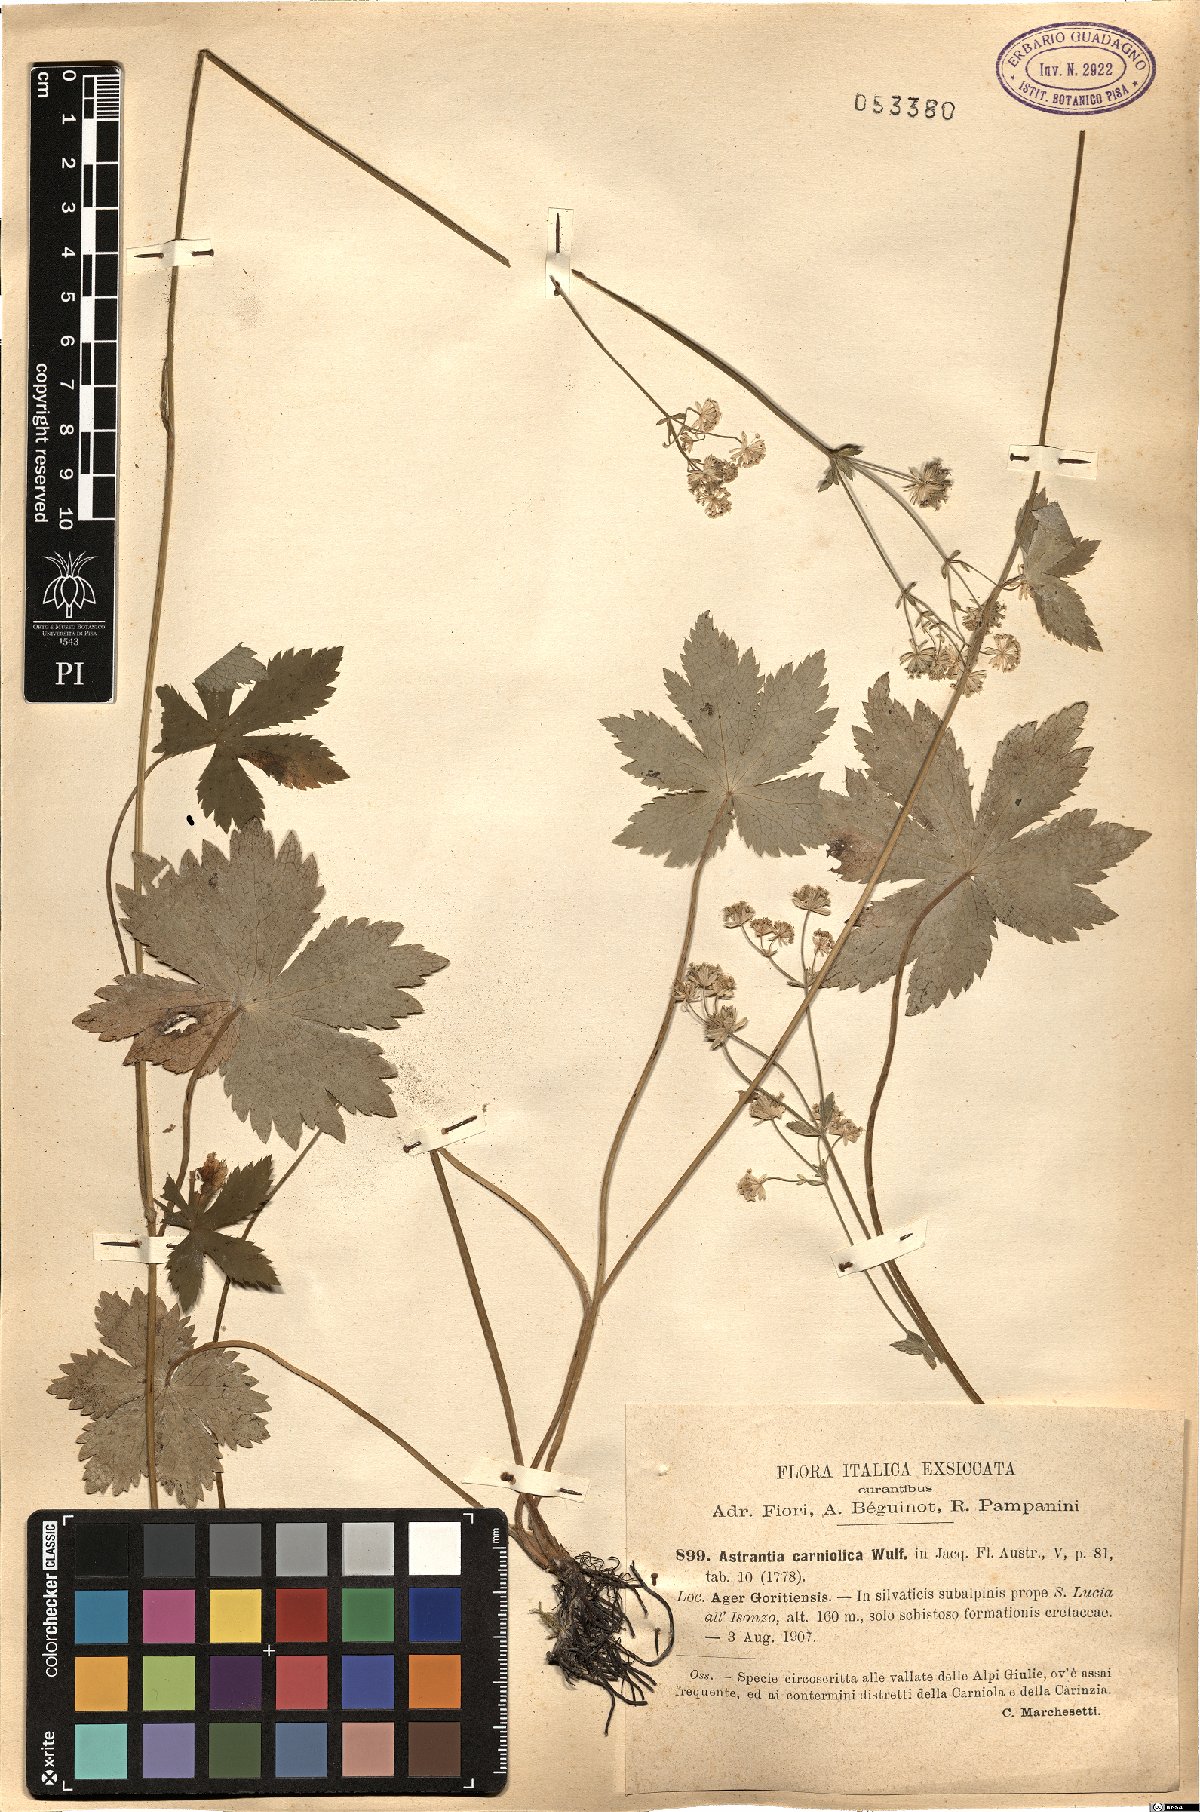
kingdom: Plantae
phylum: Tracheophyta
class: Magnoliopsida
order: Apiales
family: Apiaceae
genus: Astrantia
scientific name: Astrantia carniolica
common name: Carnic masterwort
